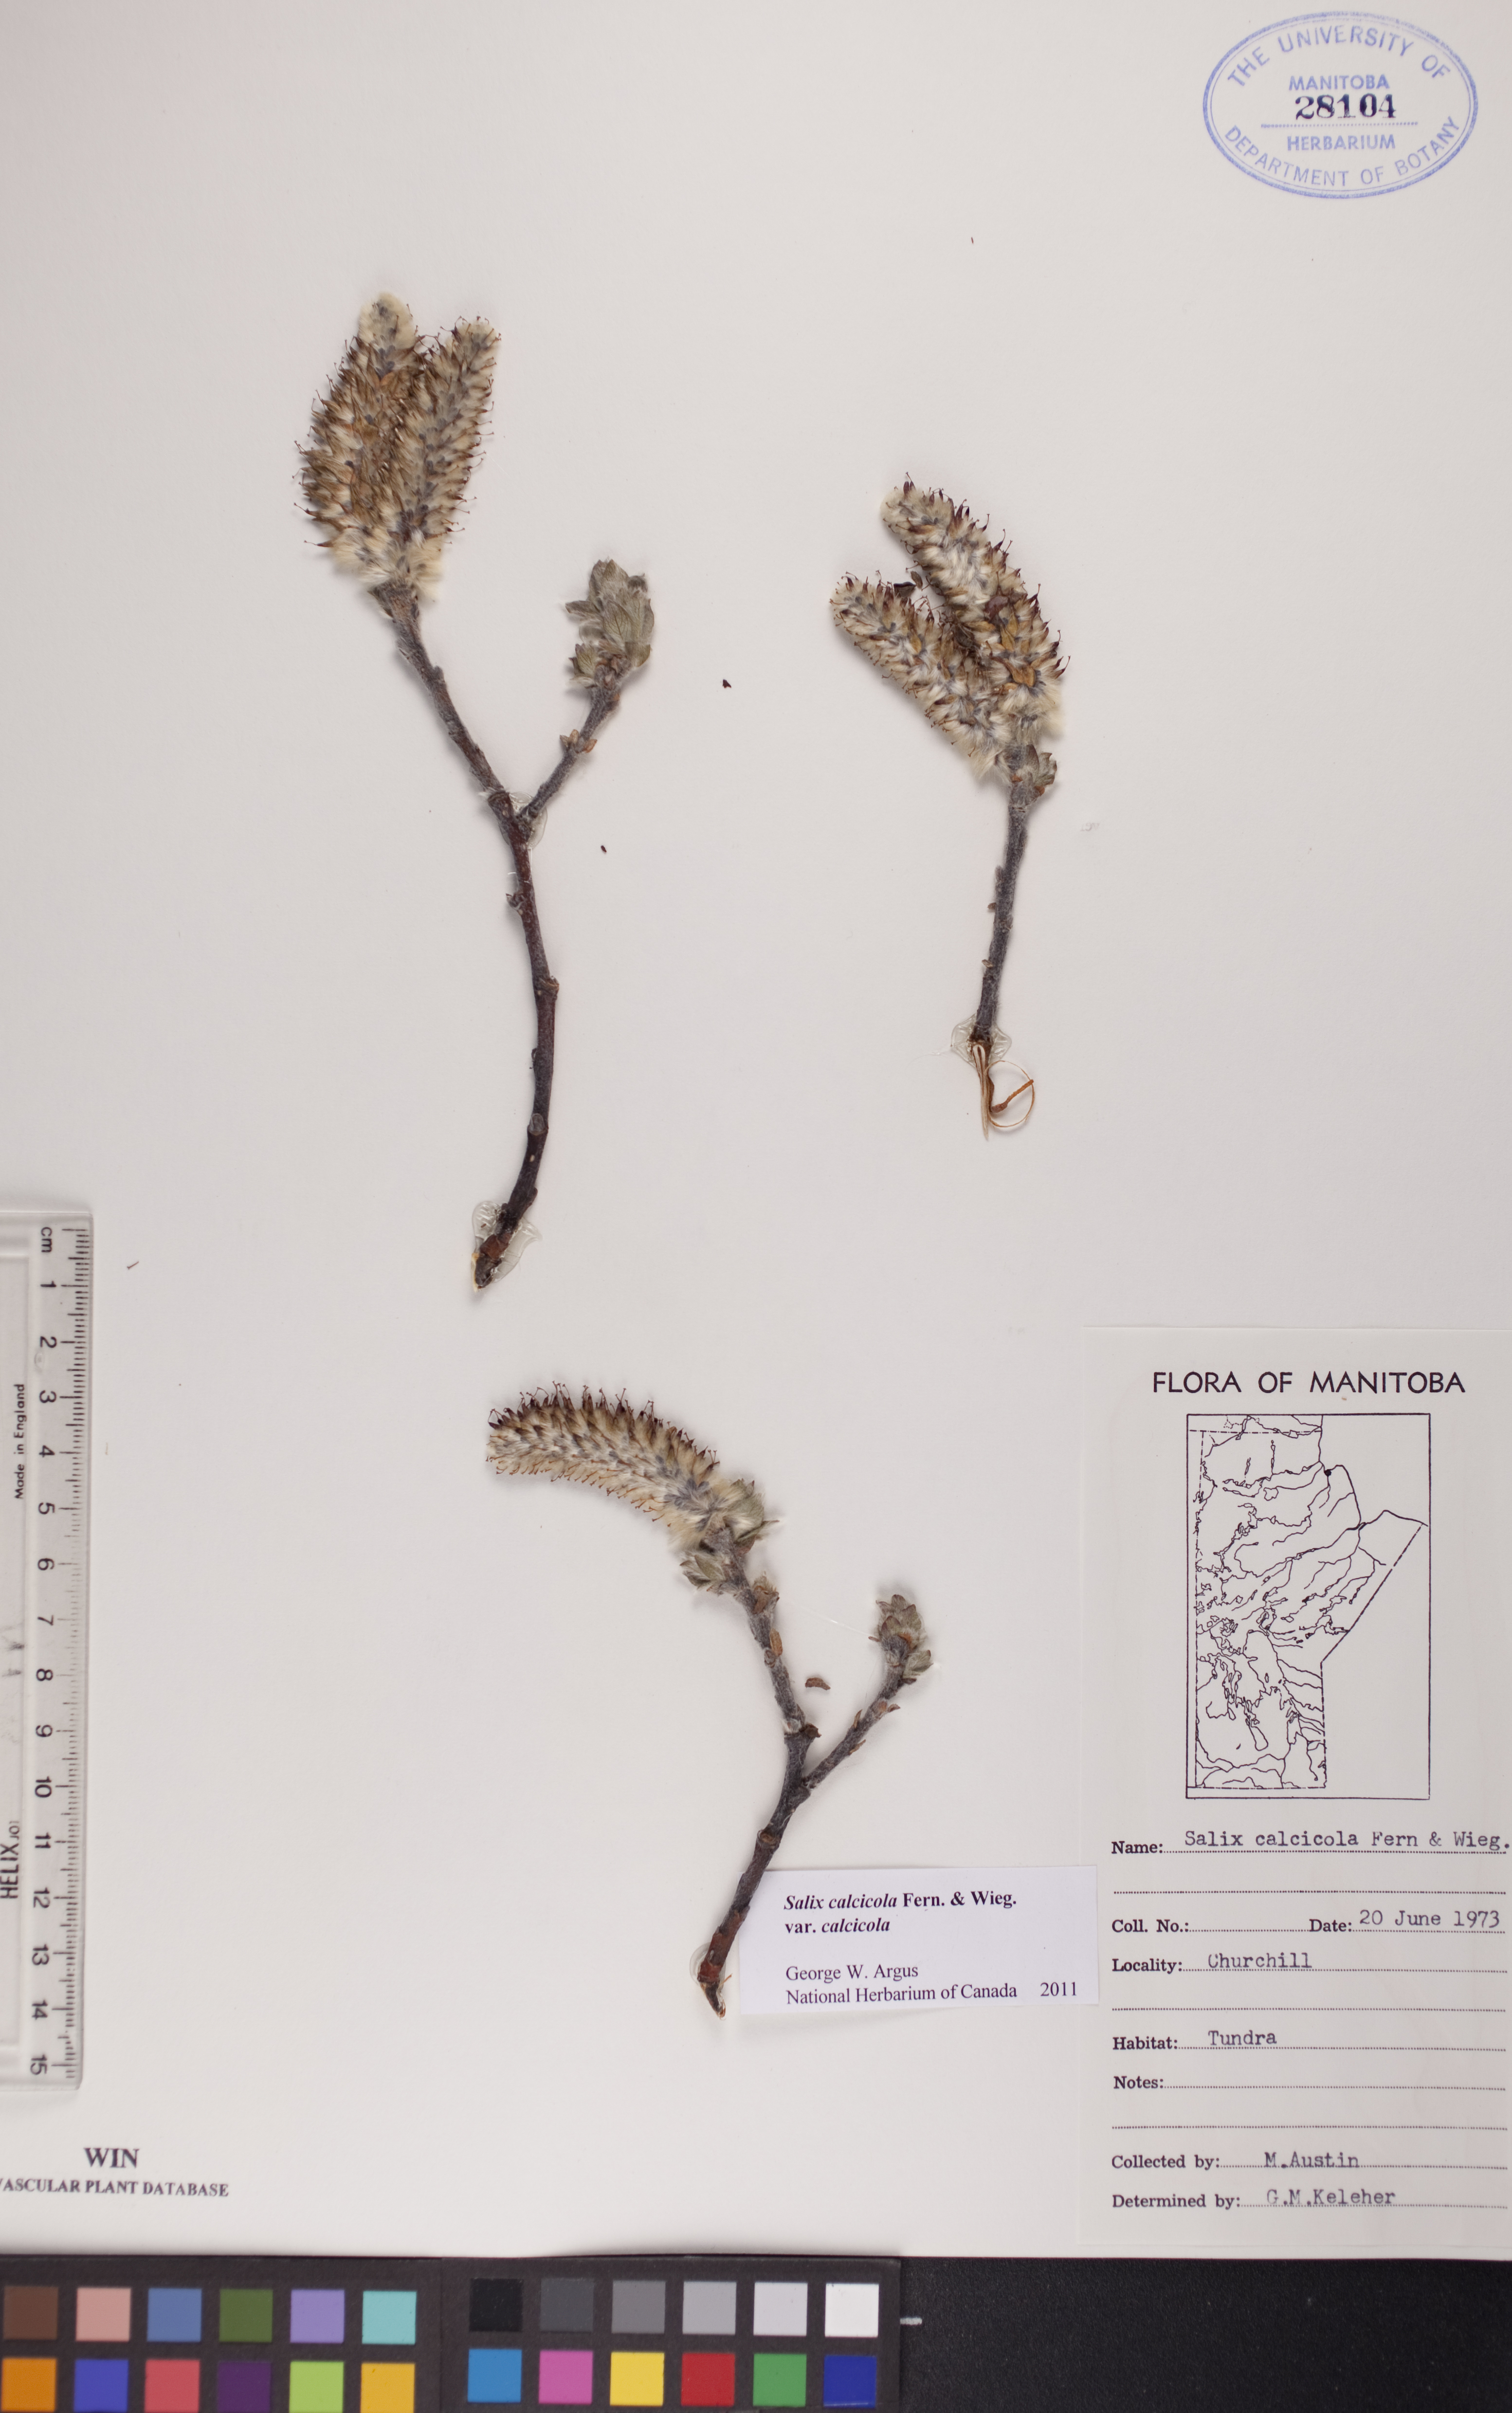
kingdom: Plantae
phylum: Tracheophyta
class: Magnoliopsida
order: Malpighiales
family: Salicaceae
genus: Salix
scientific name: Salix calcicola
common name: Calcareous willow
